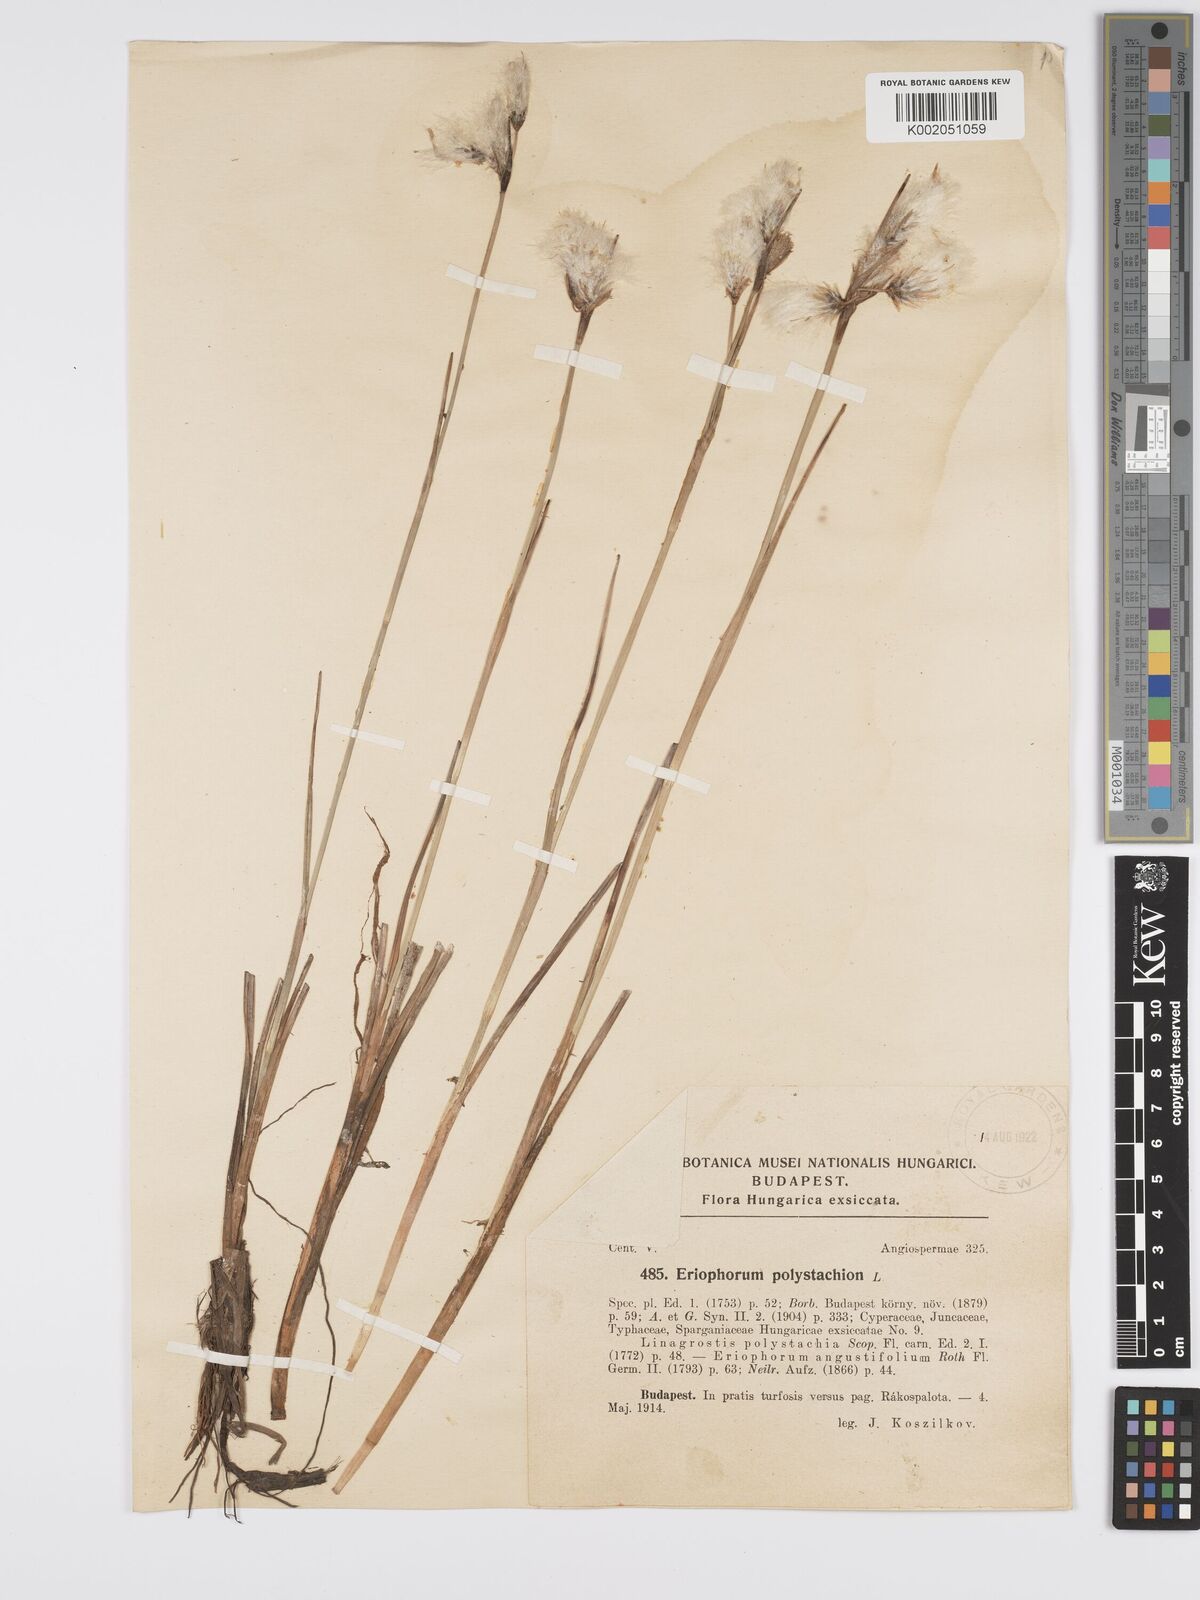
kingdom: Plantae
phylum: Tracheophyta
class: Liliopsida
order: Poales
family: Cyperaceae
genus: Eriophorum
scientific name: Eriophorum angustifolium
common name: Common cottongrass
